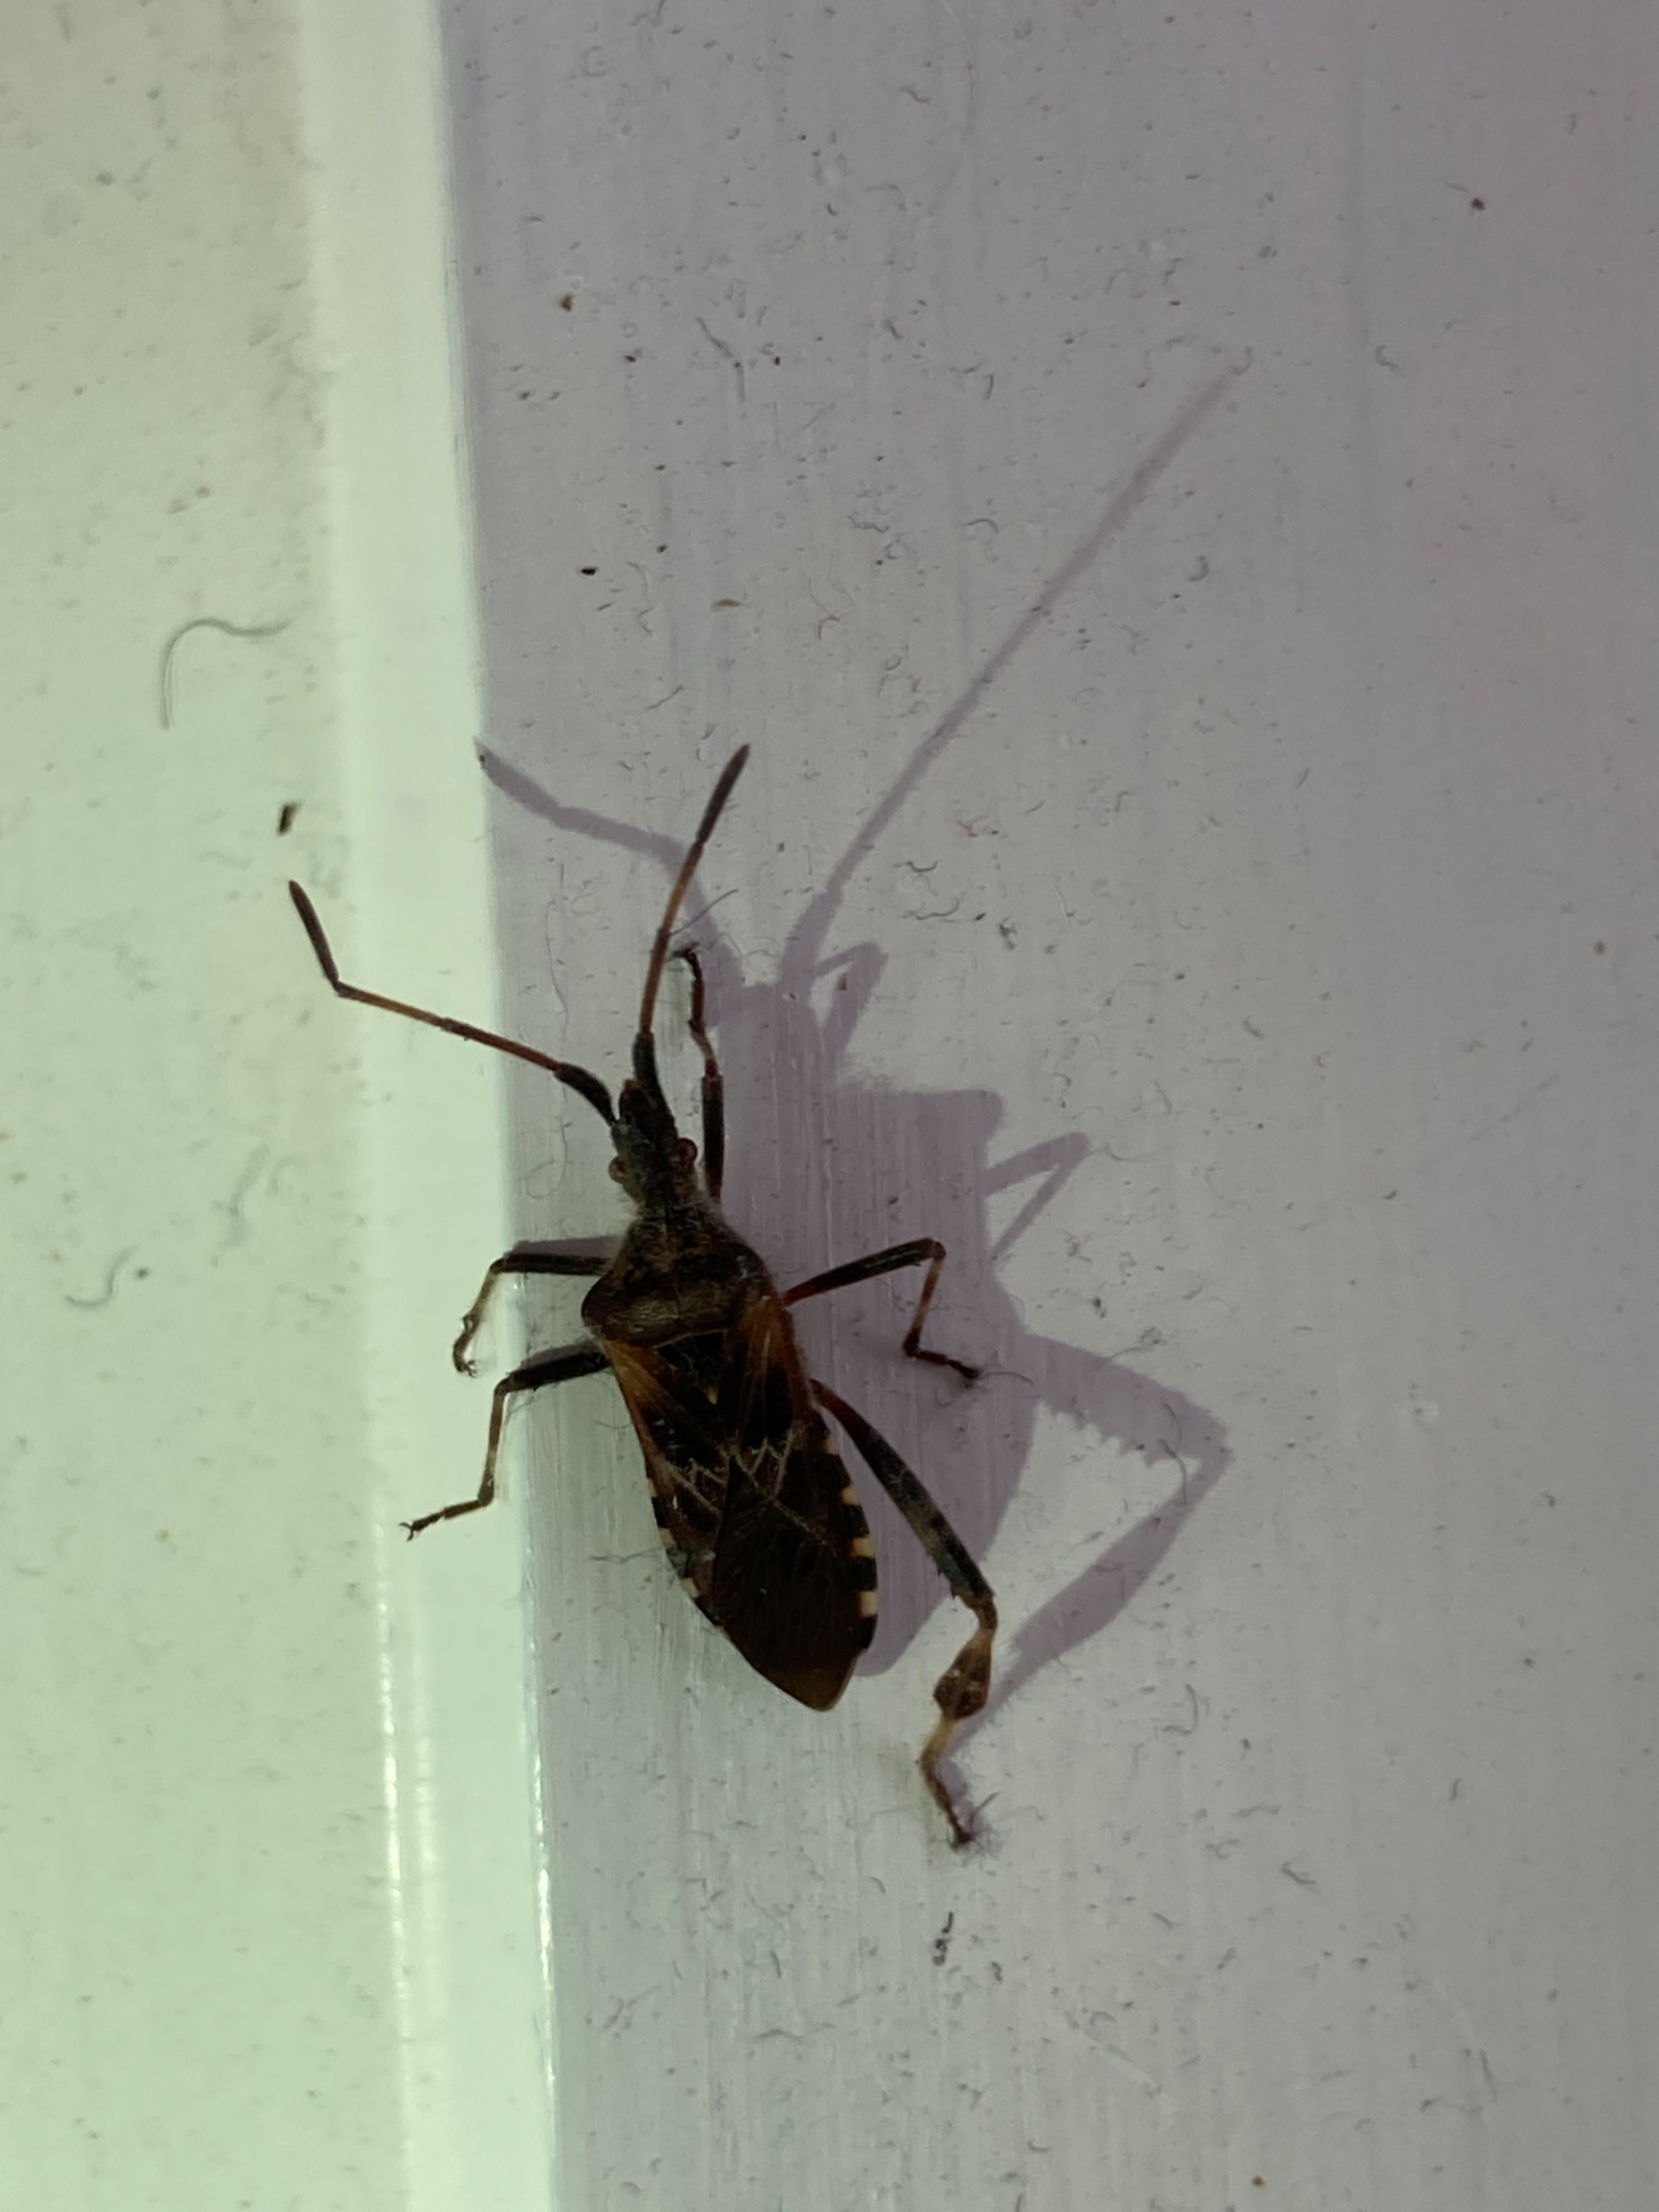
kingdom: Animalia
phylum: Arthropoda
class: Insecta
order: Hemiptera
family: Coreidae
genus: Leptoglossus
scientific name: Leptoglossus occidentalis
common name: Amerikansk fyrretæge
